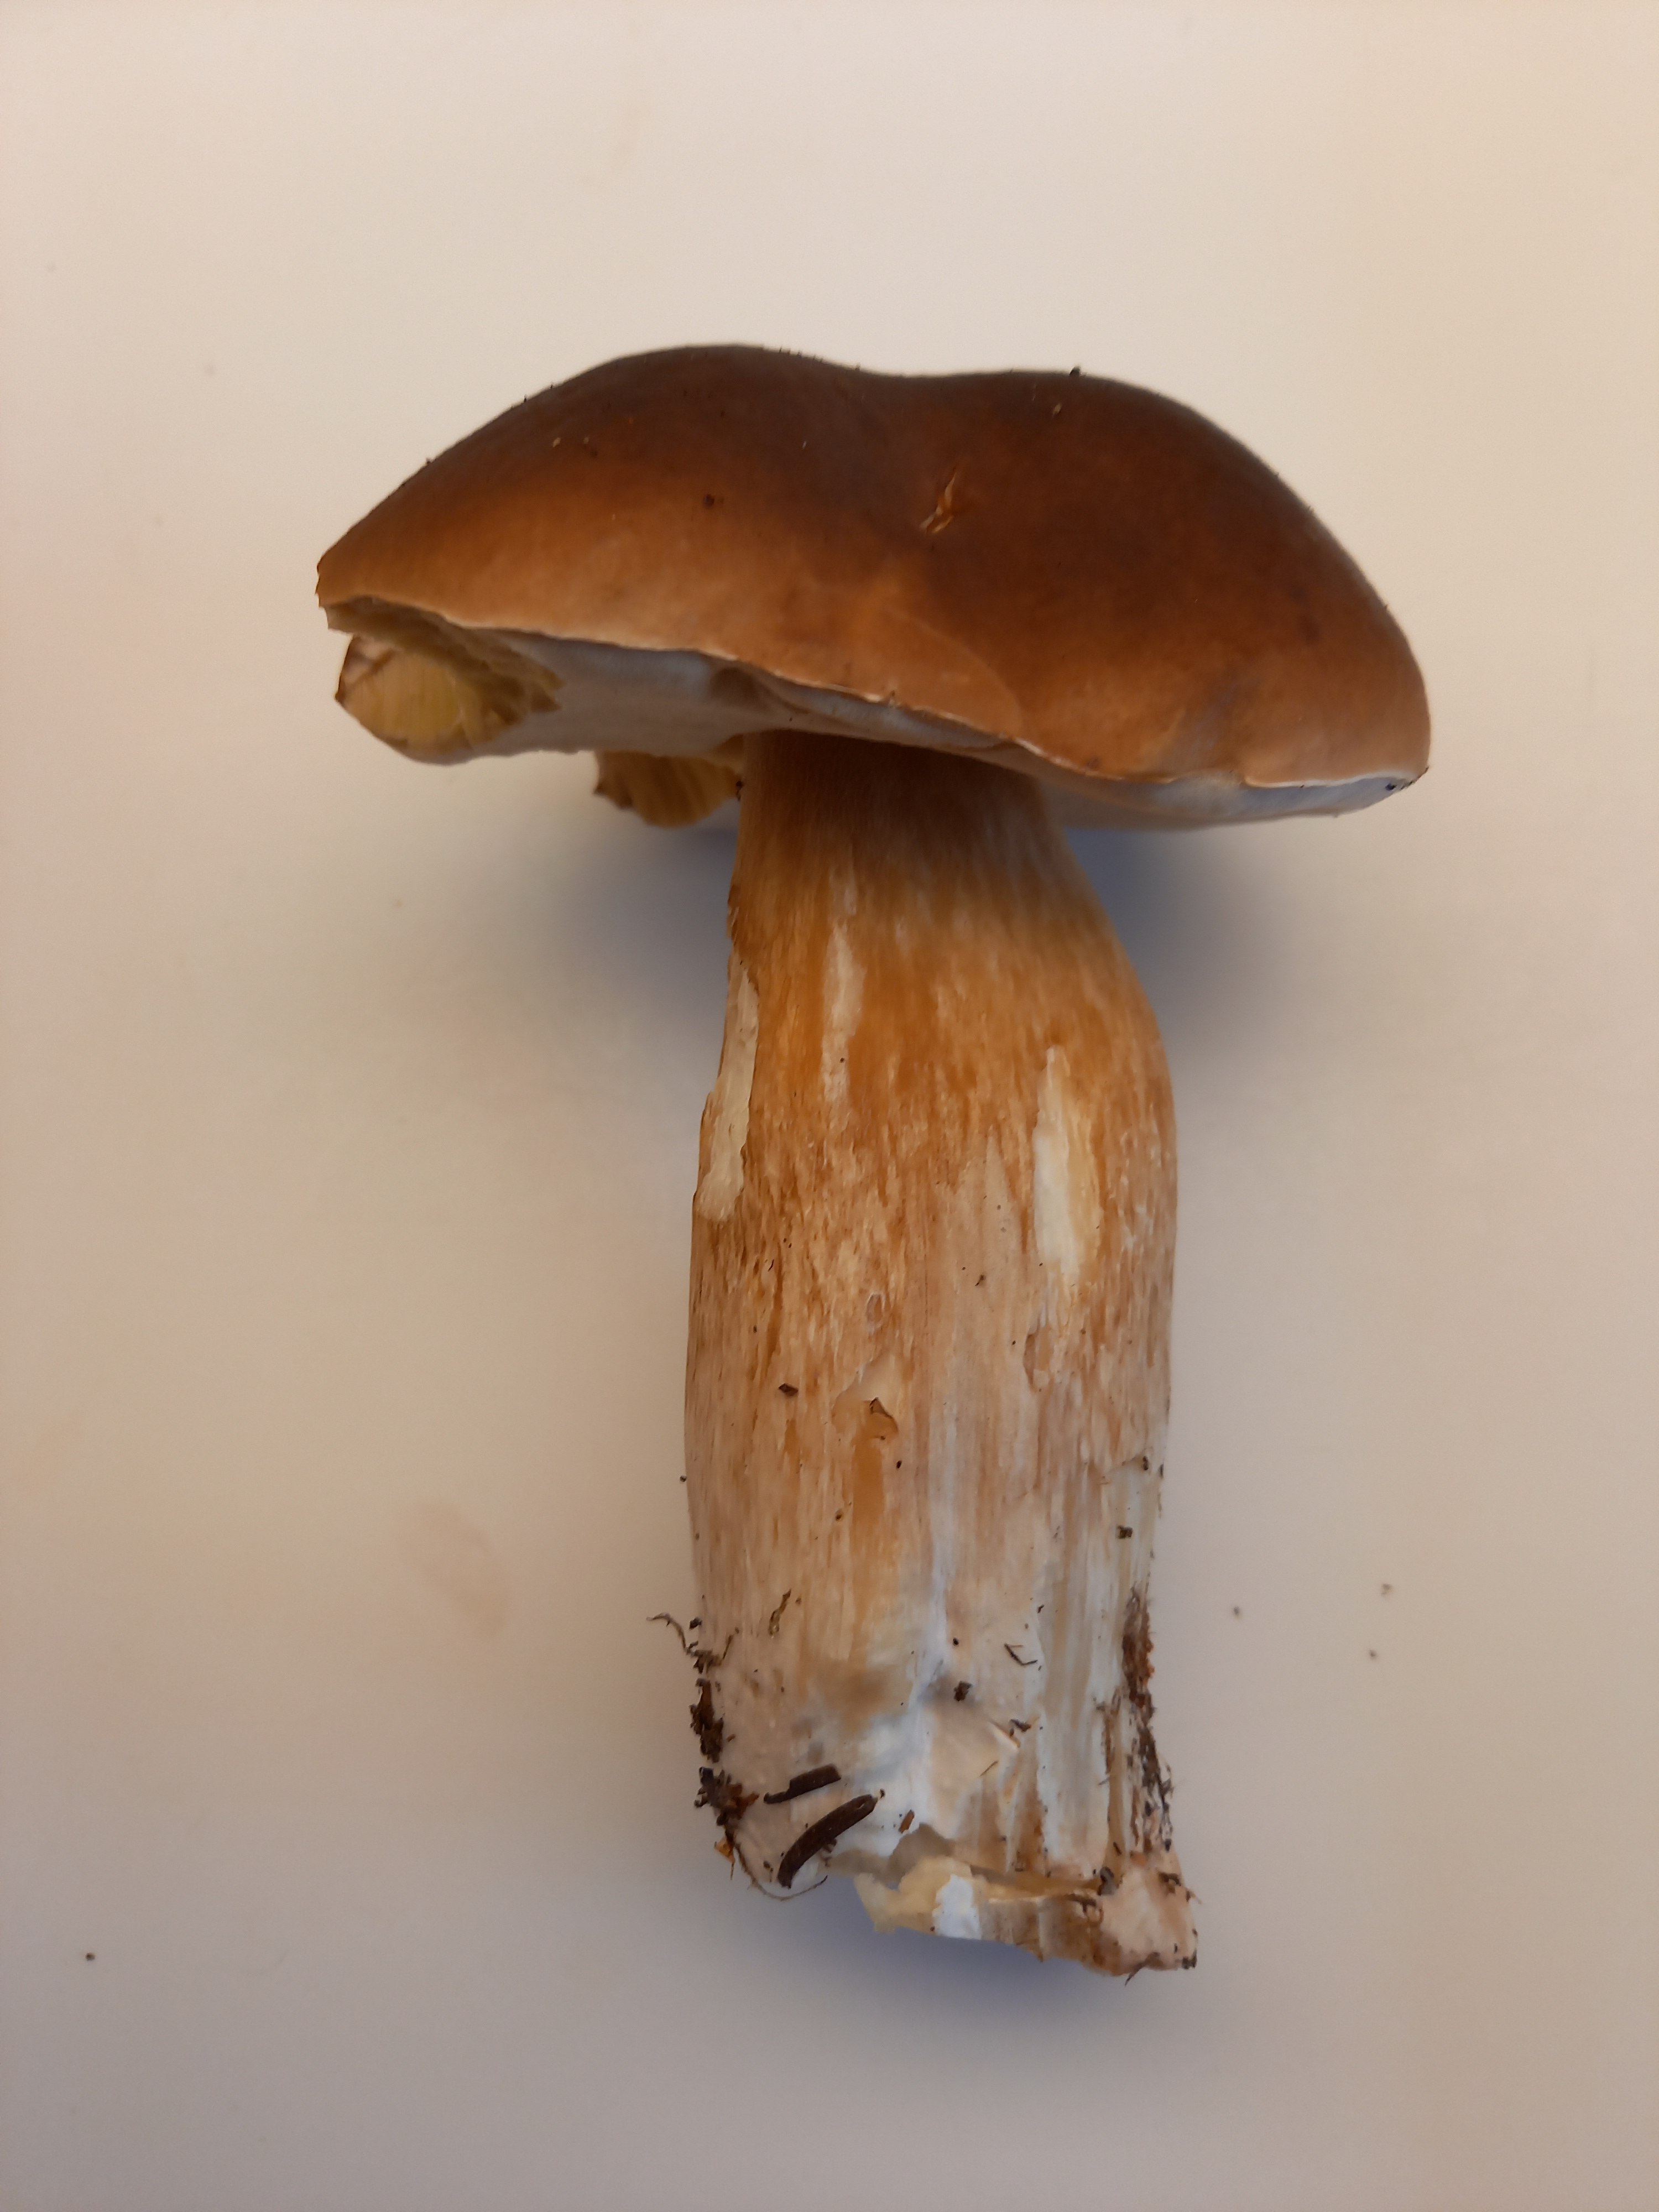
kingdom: Fungi
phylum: Basidiomycota
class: Agaricomycetes
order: Boletales
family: Boletaceae
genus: Imleria
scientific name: Imleria badia
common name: brunstokket rørhat
